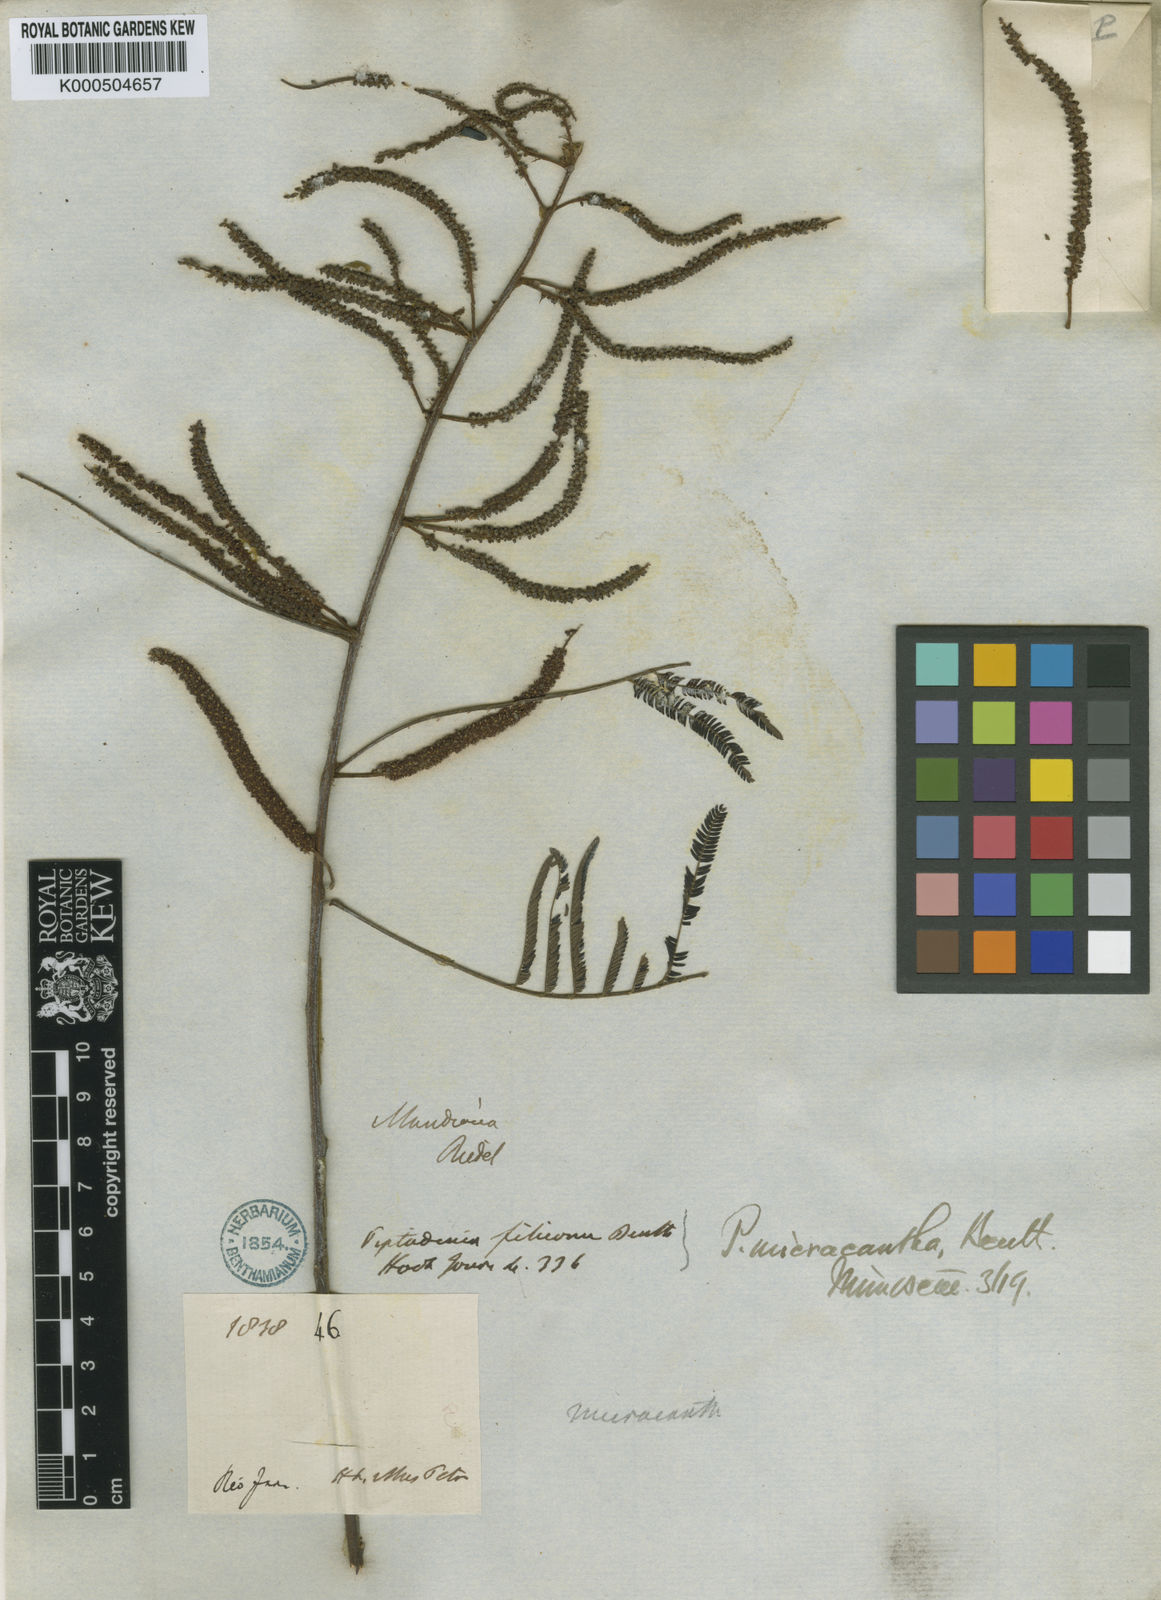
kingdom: Plantae
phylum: Tracheophyta
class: Magnoliopsida
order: Fabales
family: Fabaceae
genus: Piptadenia
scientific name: Piptadenia micracantha
